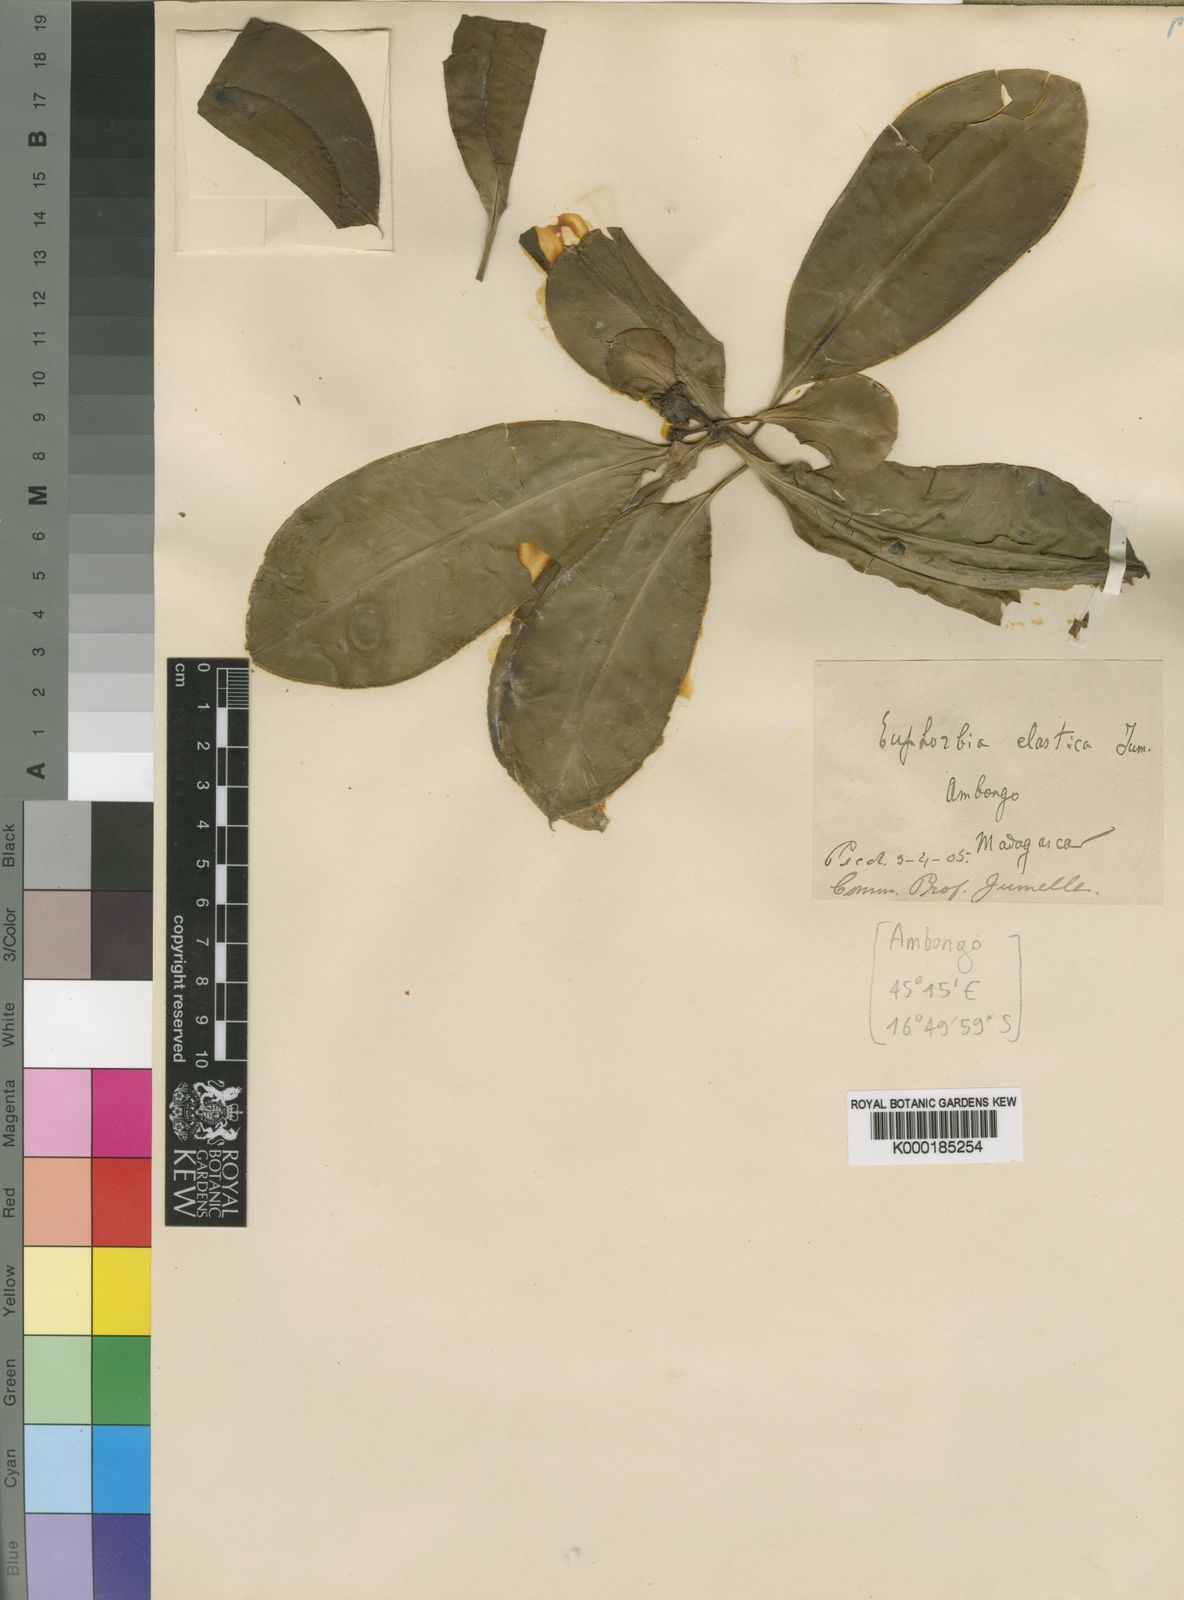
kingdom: Plantae
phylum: Tracheophyta
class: Magnoliopsida
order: Malpighiales
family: Euphorbiaceae
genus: Euphorbia
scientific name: Euphorbia elastica
